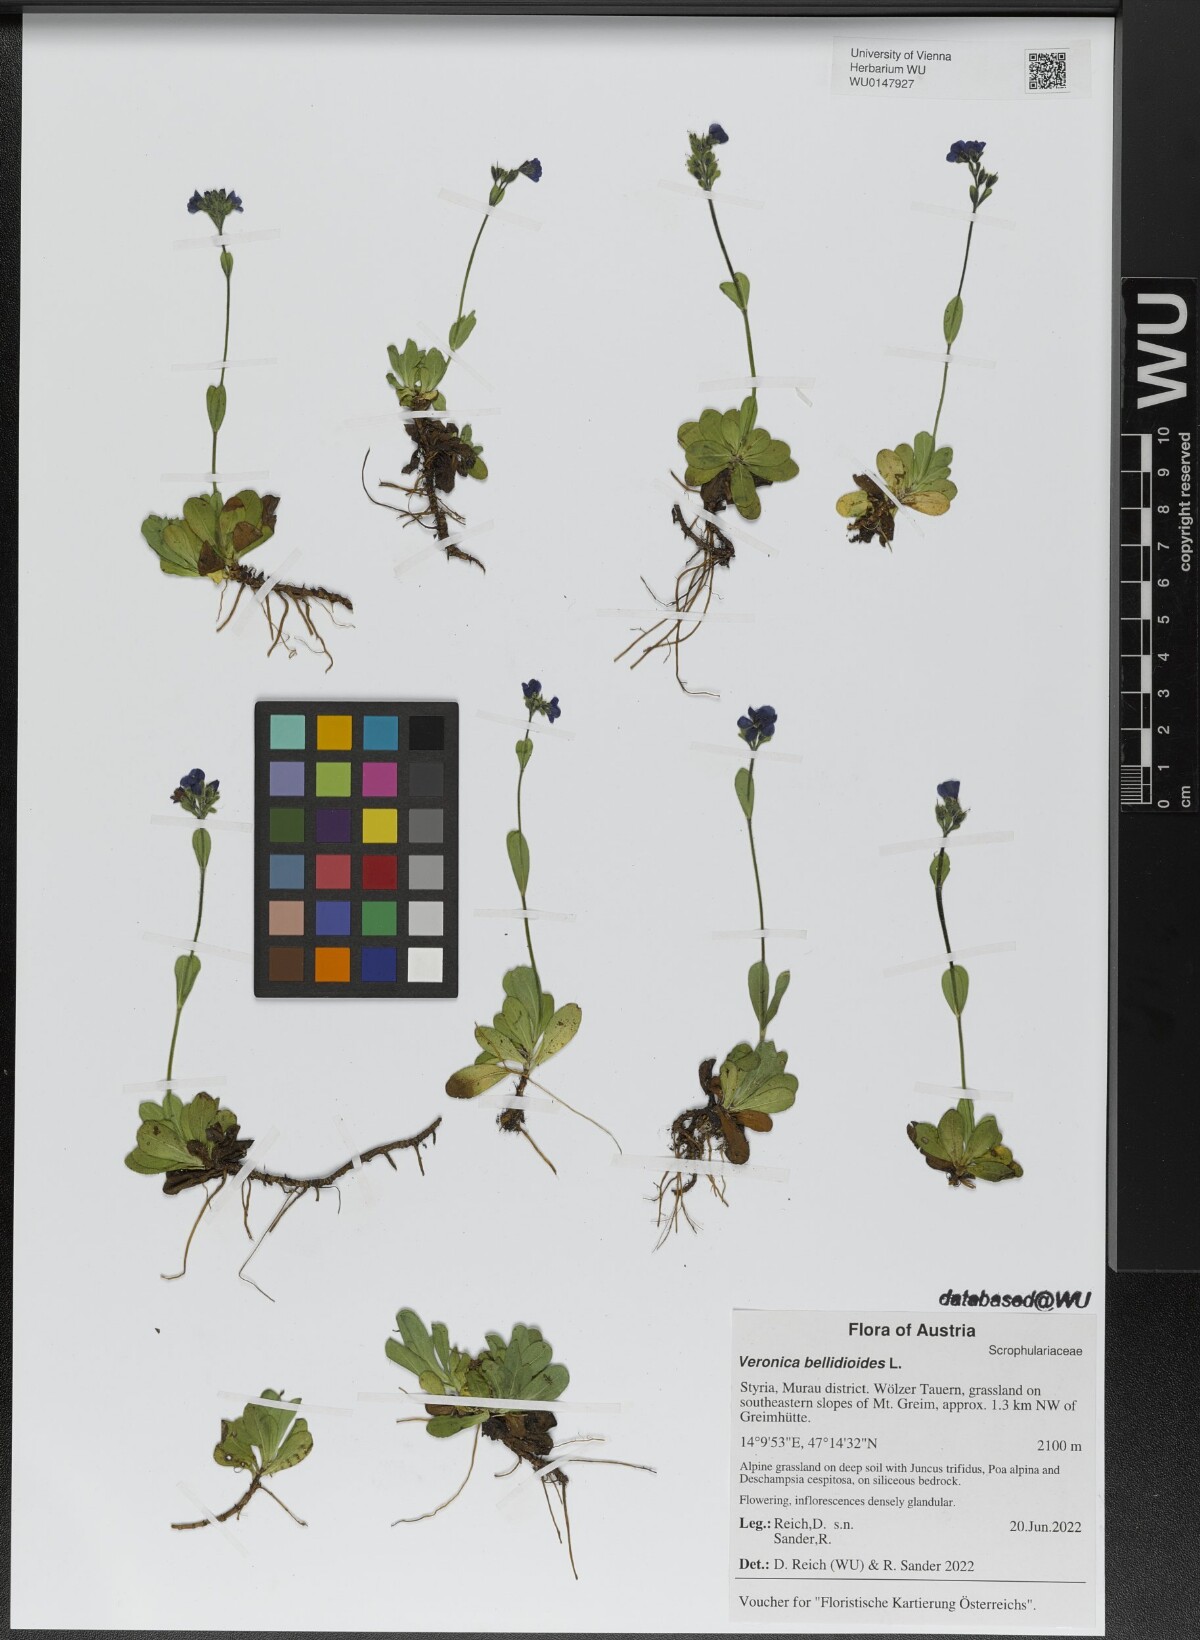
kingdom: Plantae
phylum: Tracheophyta
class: Magnoliopsida
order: Lamiales
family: Plantaginaceae
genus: Veronica
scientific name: Veronica bellidioides
